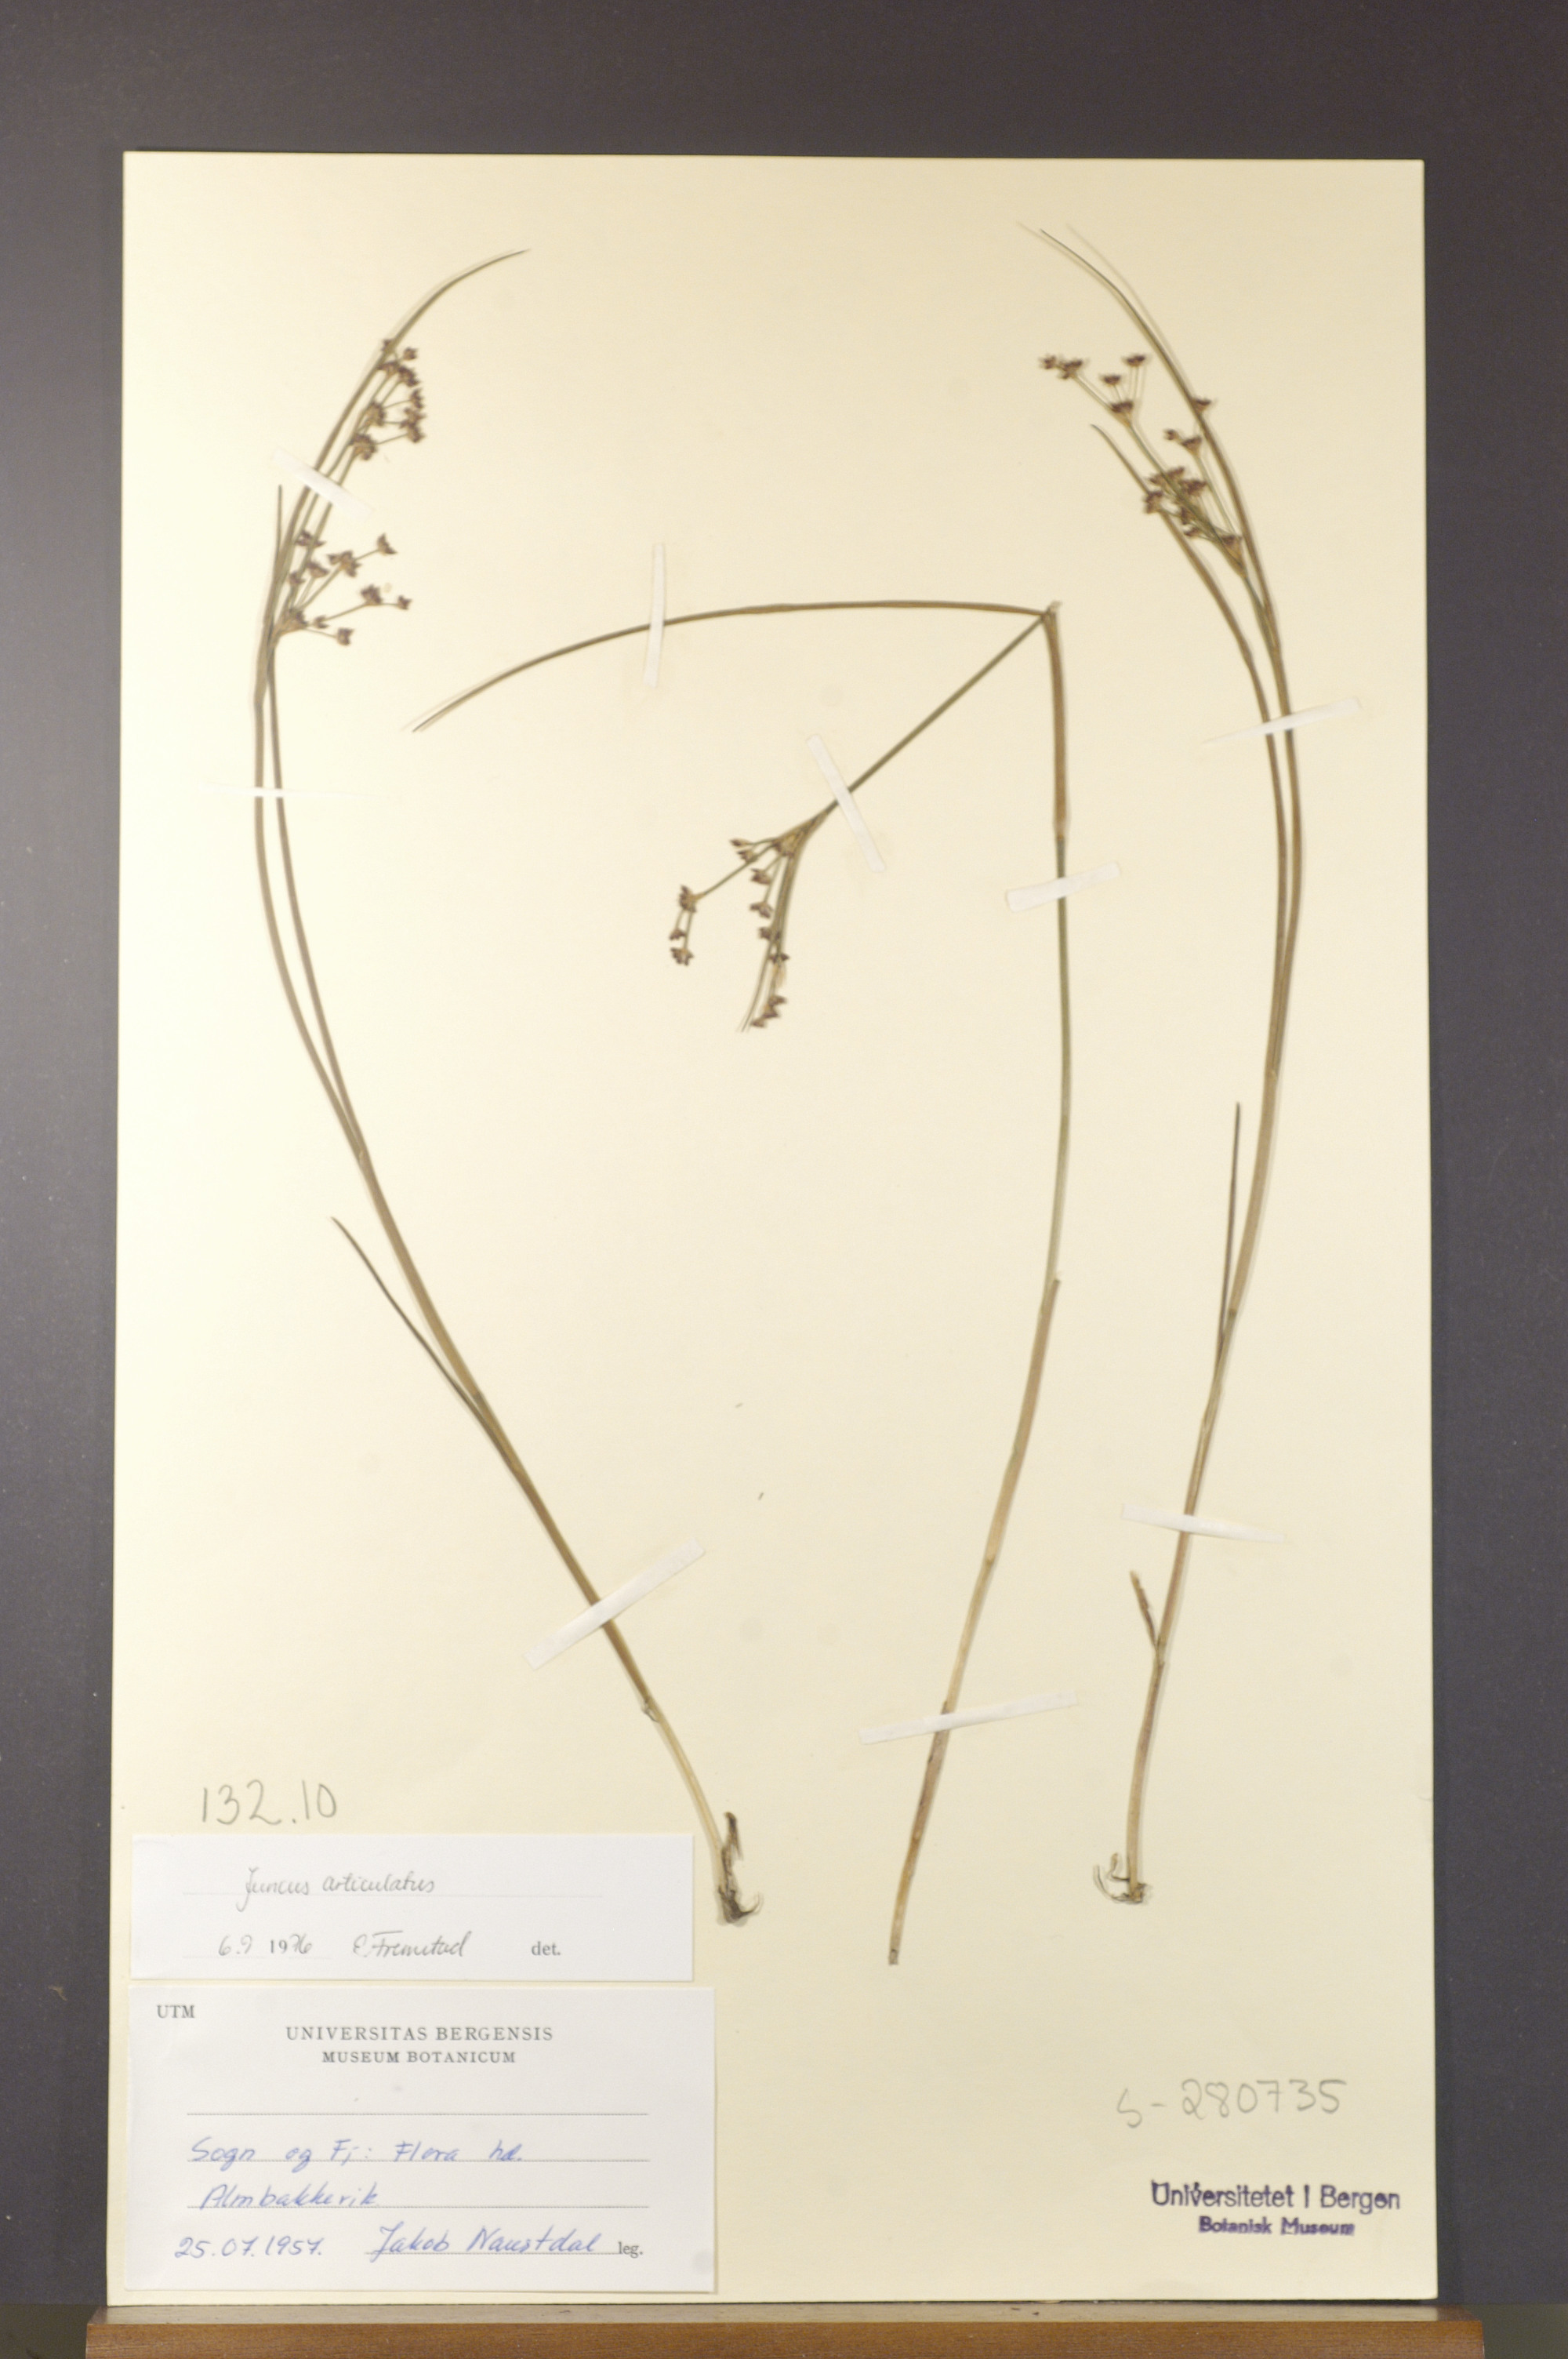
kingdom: Plantae
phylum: Tracheophyta
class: Liliopsida
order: Poales
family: Juncaceae
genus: Juncus
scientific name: Juncus articulatus
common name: Jointed rush
